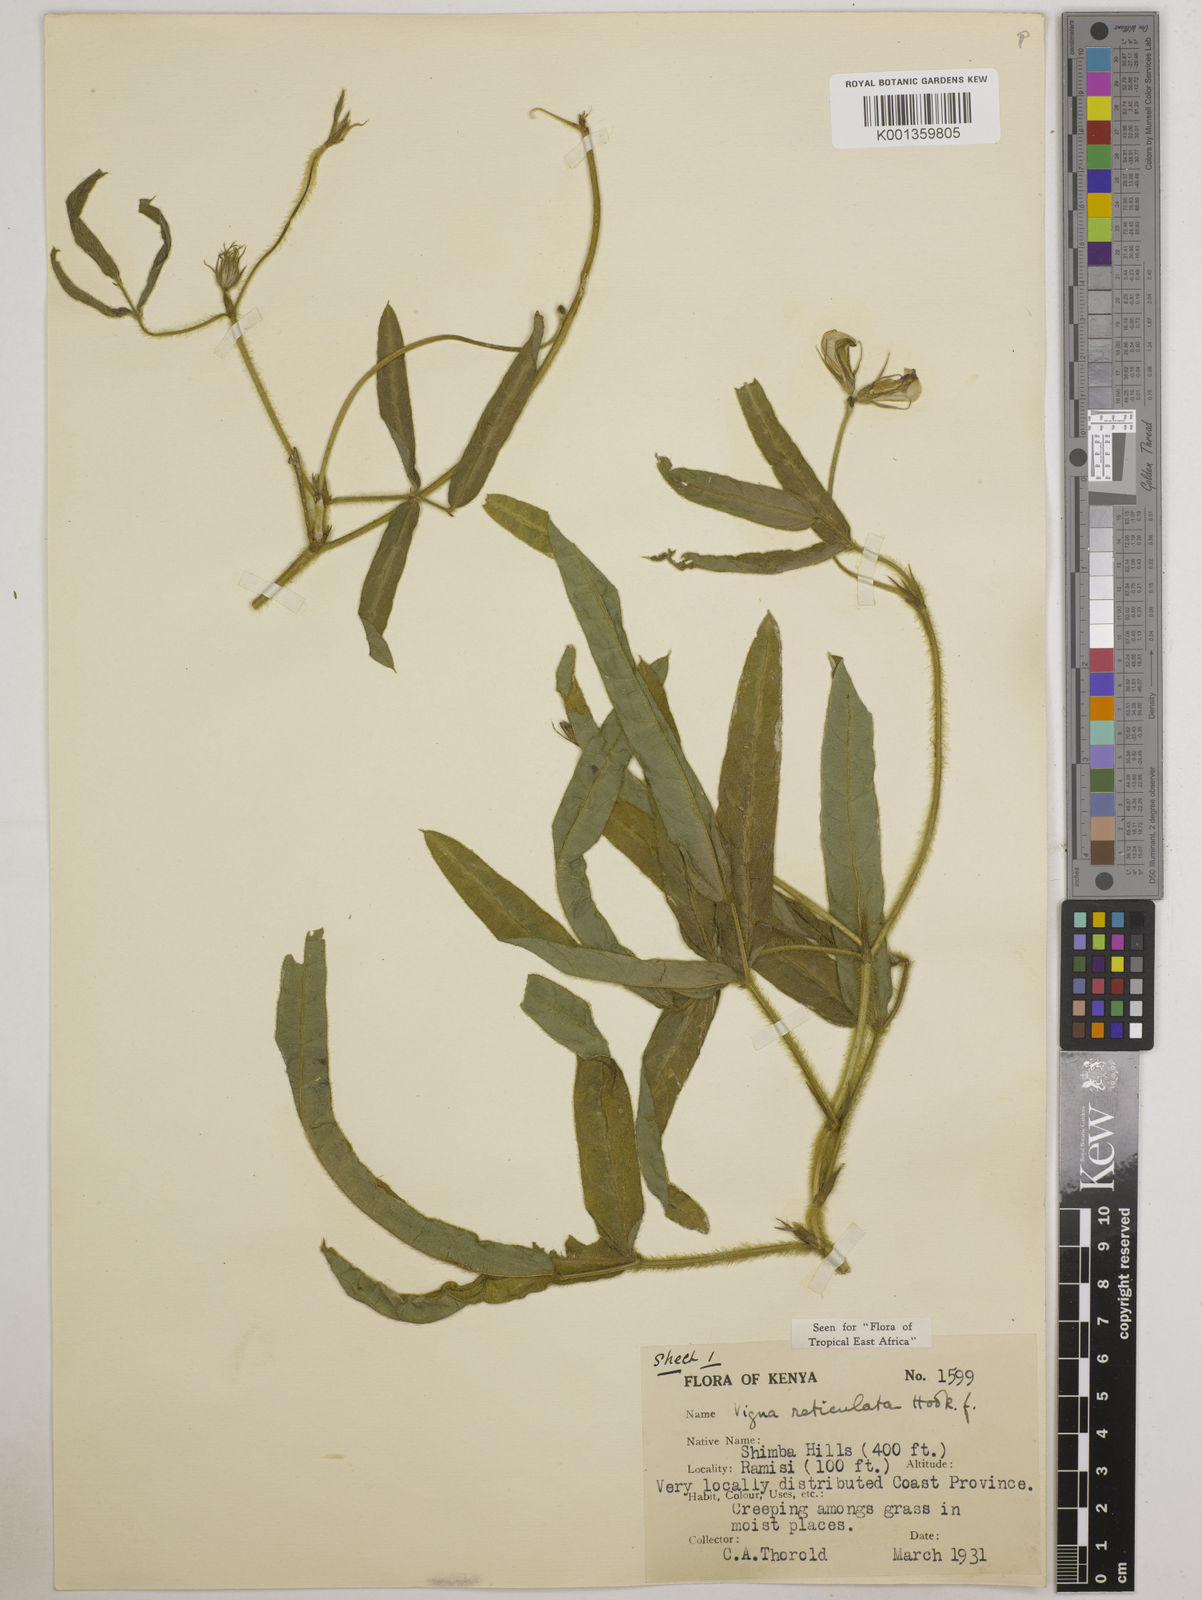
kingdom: Plantae
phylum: Tracheophyta
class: Magnoliopsida
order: Fabales
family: Fabaceae
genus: Vigna
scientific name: Vigna reticulata
